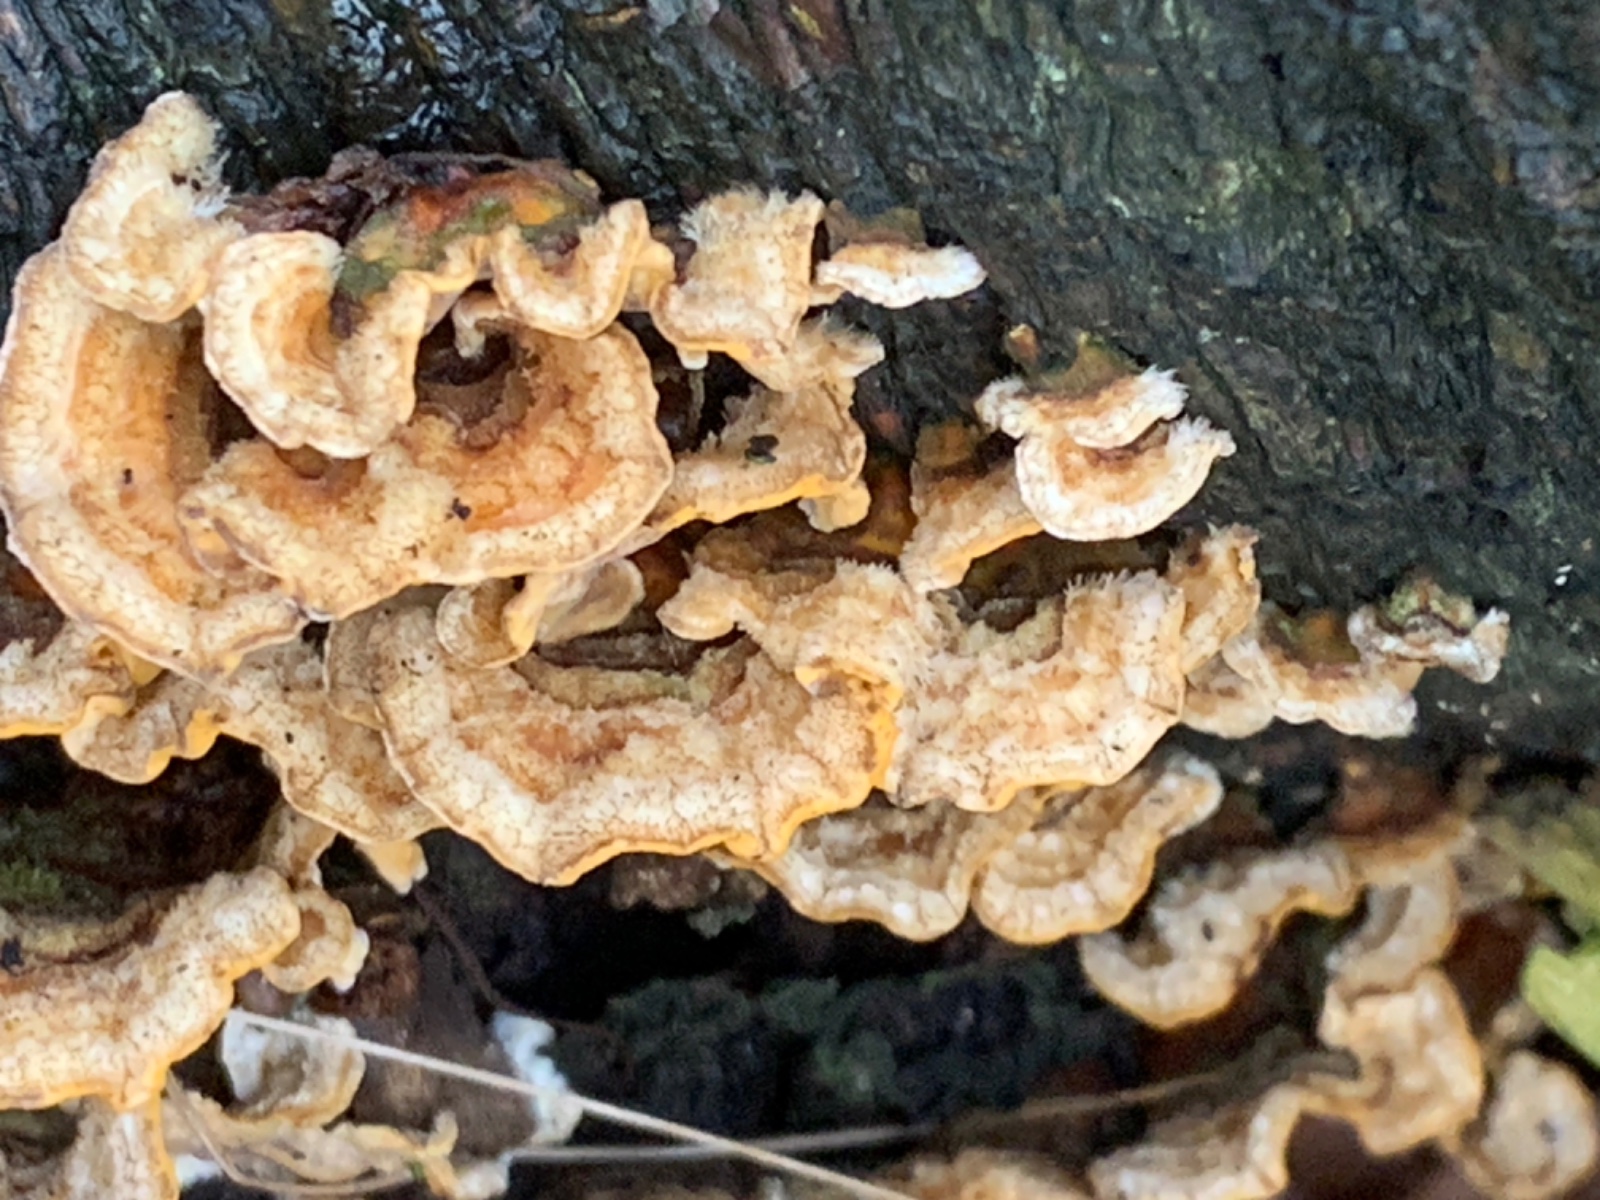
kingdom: Fungi
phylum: Basidiomycota
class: Agaricomycetes
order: Russulales
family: Stereaceae
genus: Stereum
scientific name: Stereum hirsutum
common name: håret lædersvamp
